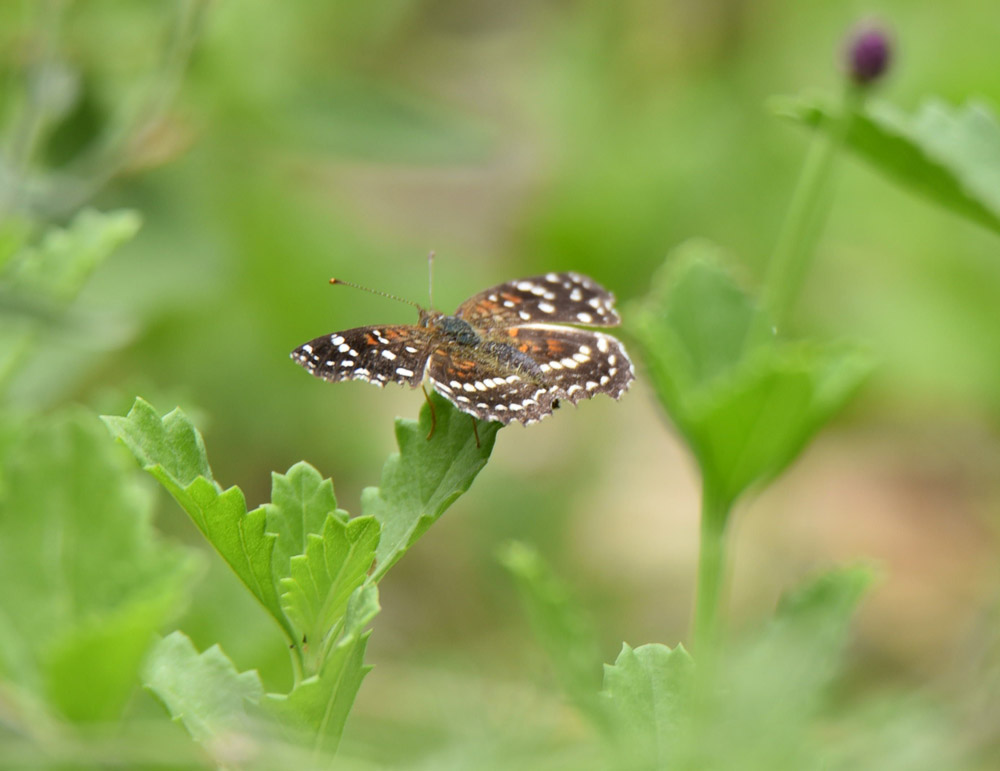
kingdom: Animalia
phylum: Arthropoda
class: Insecta
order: Lepidoptera
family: Nymphalidae
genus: Anthanassa
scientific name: Anthanassa texana
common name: Texan crescent
